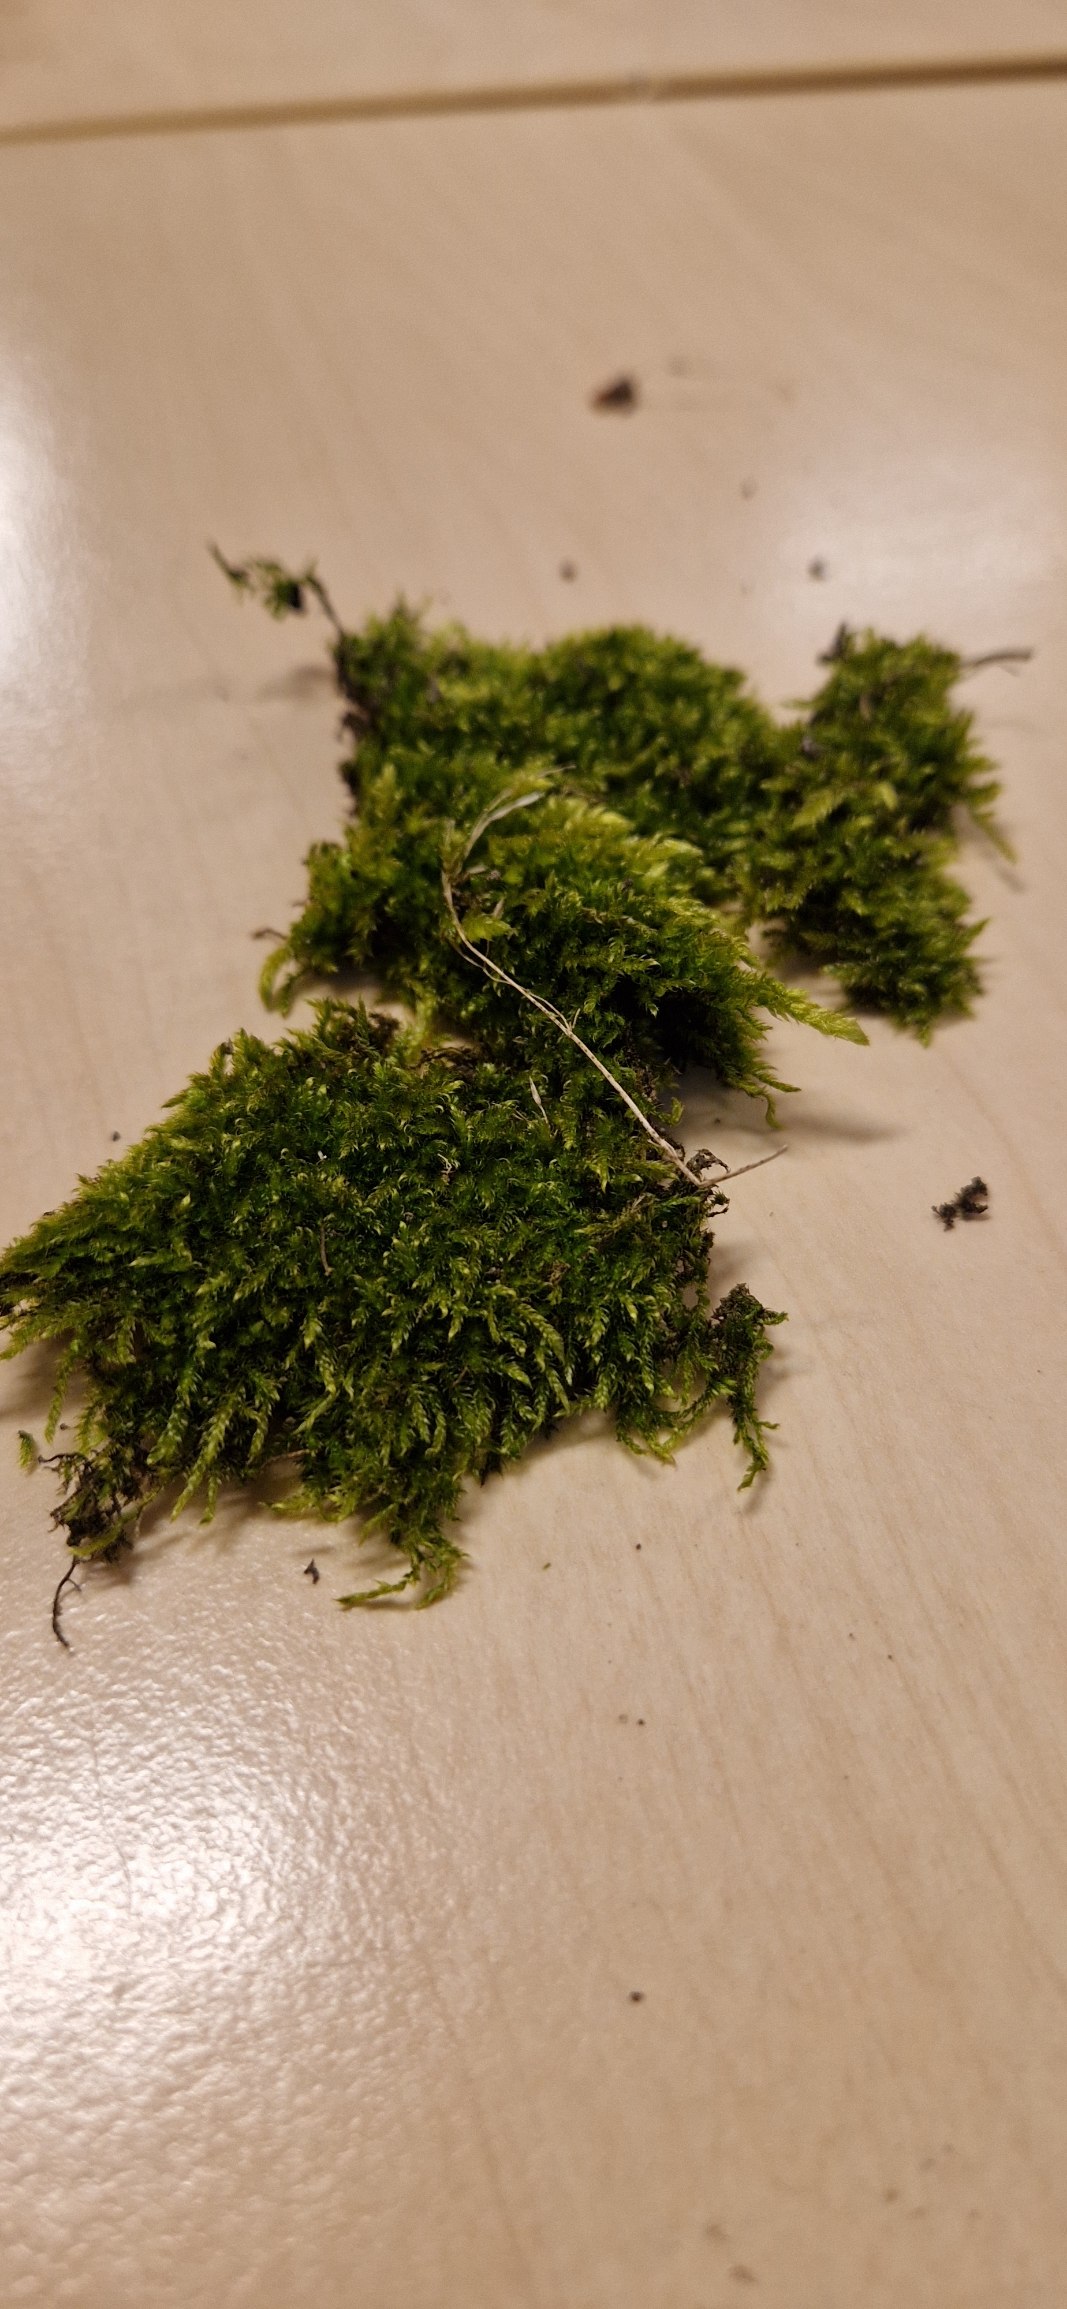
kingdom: Plantae
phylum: Bryophyta
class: Bryopsida
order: Hypnales
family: Hypnaceae
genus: Hypnum
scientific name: Hypnum cupressiforme
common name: Almindelig cypresmos
